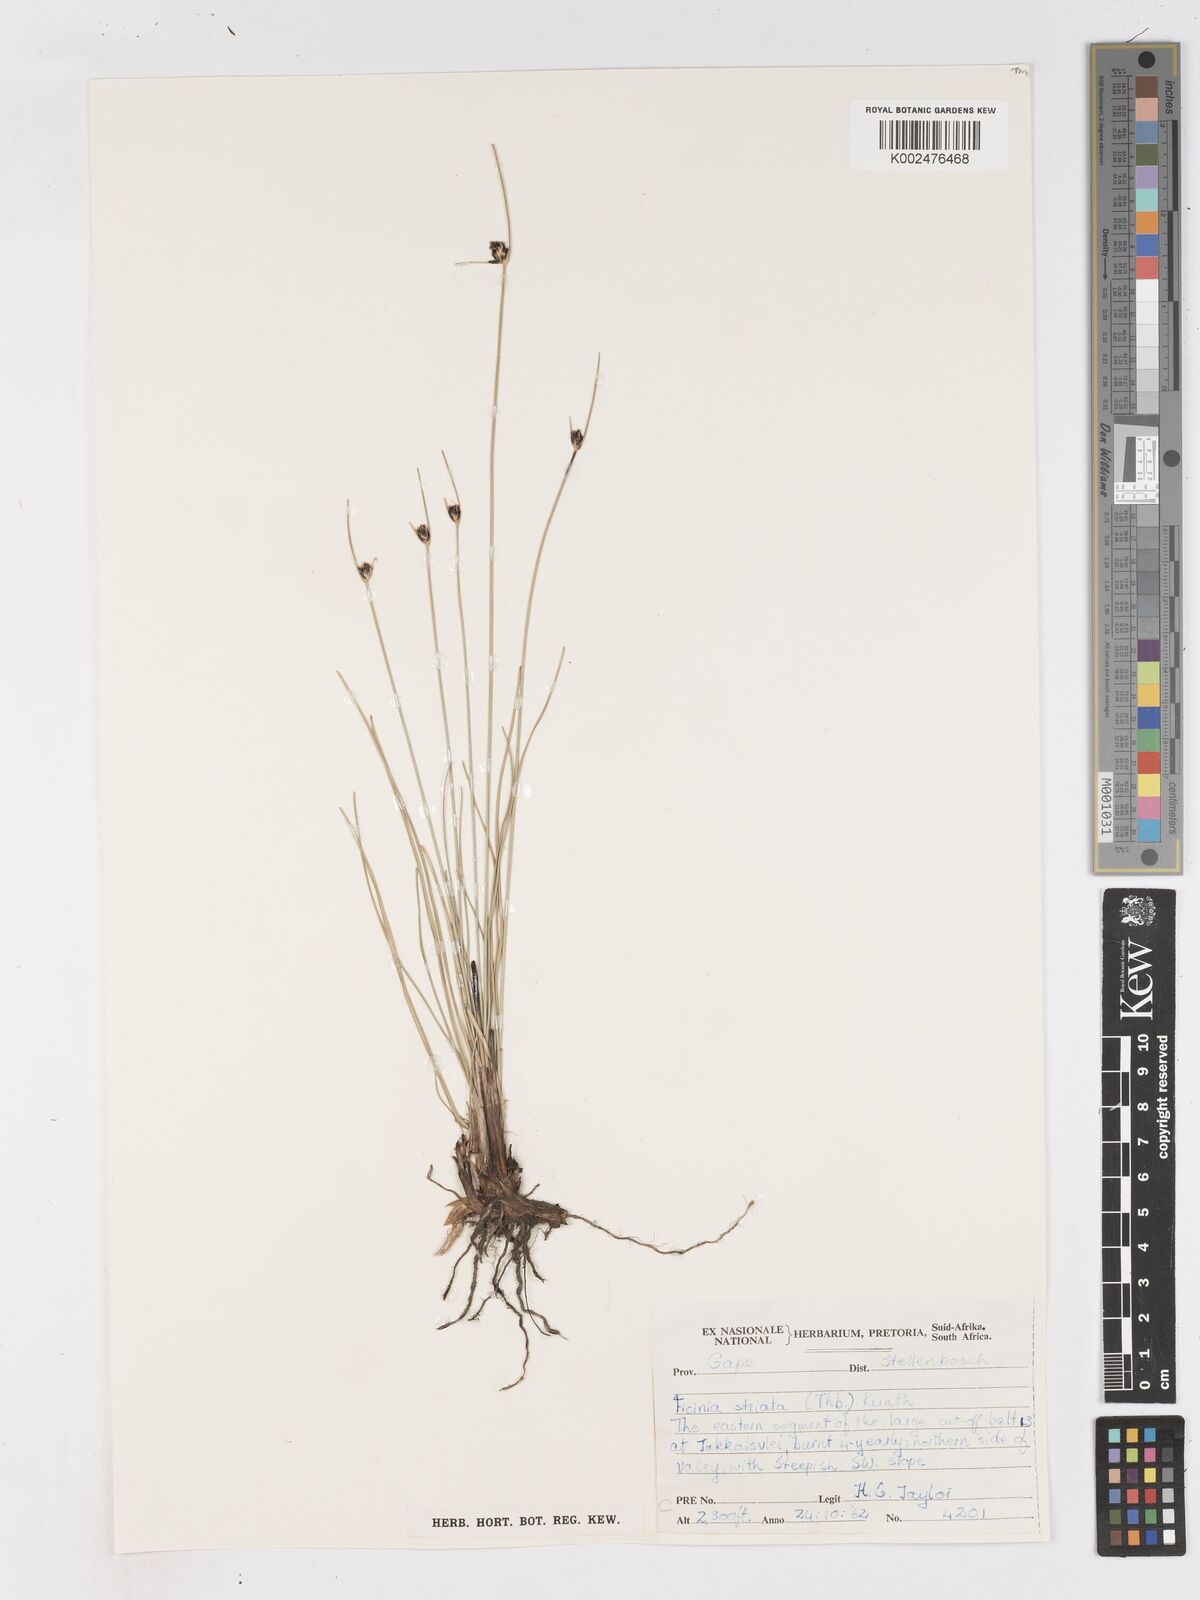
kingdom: Plantae
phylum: Tracheophyta
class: Liliopsida
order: Poales
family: Cyperaceae
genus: Ficinia
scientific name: Ficinia indica
